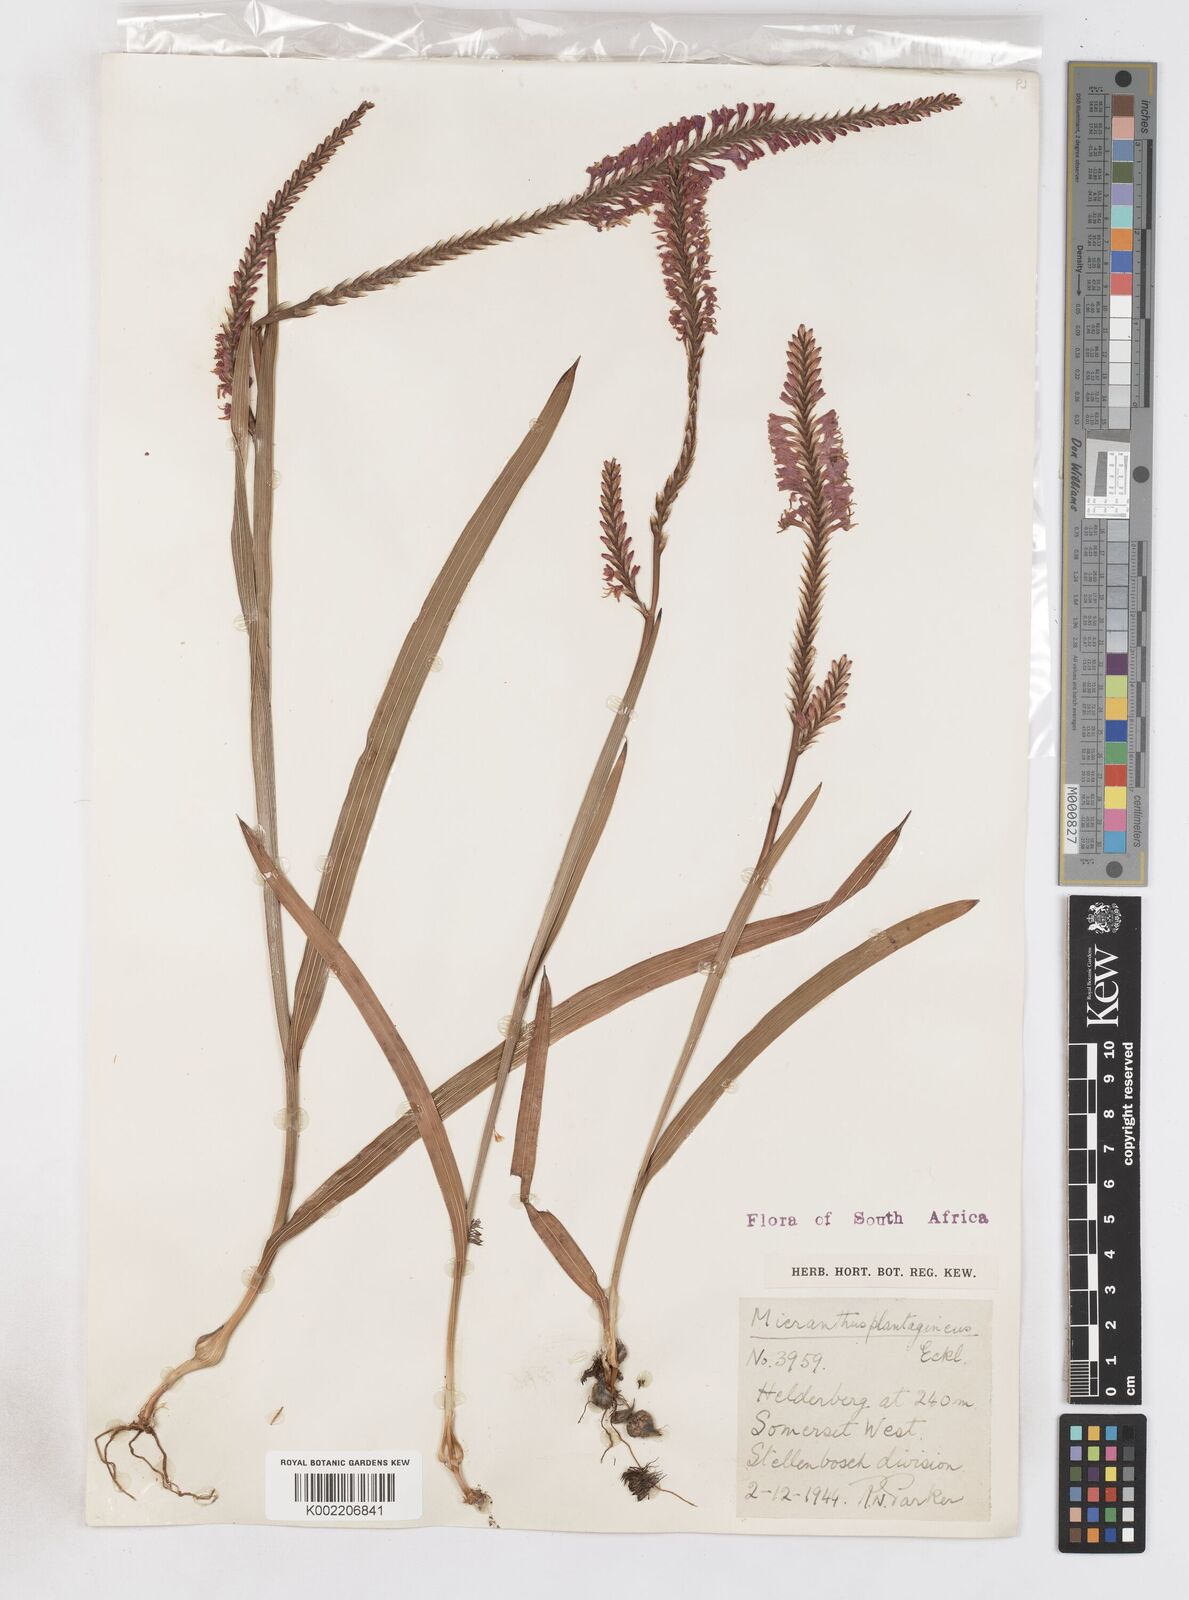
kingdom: Plantae
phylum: Tracheophyta
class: Liliopsida
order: Asparagales
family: Iridaceae
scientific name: Iridaceae
